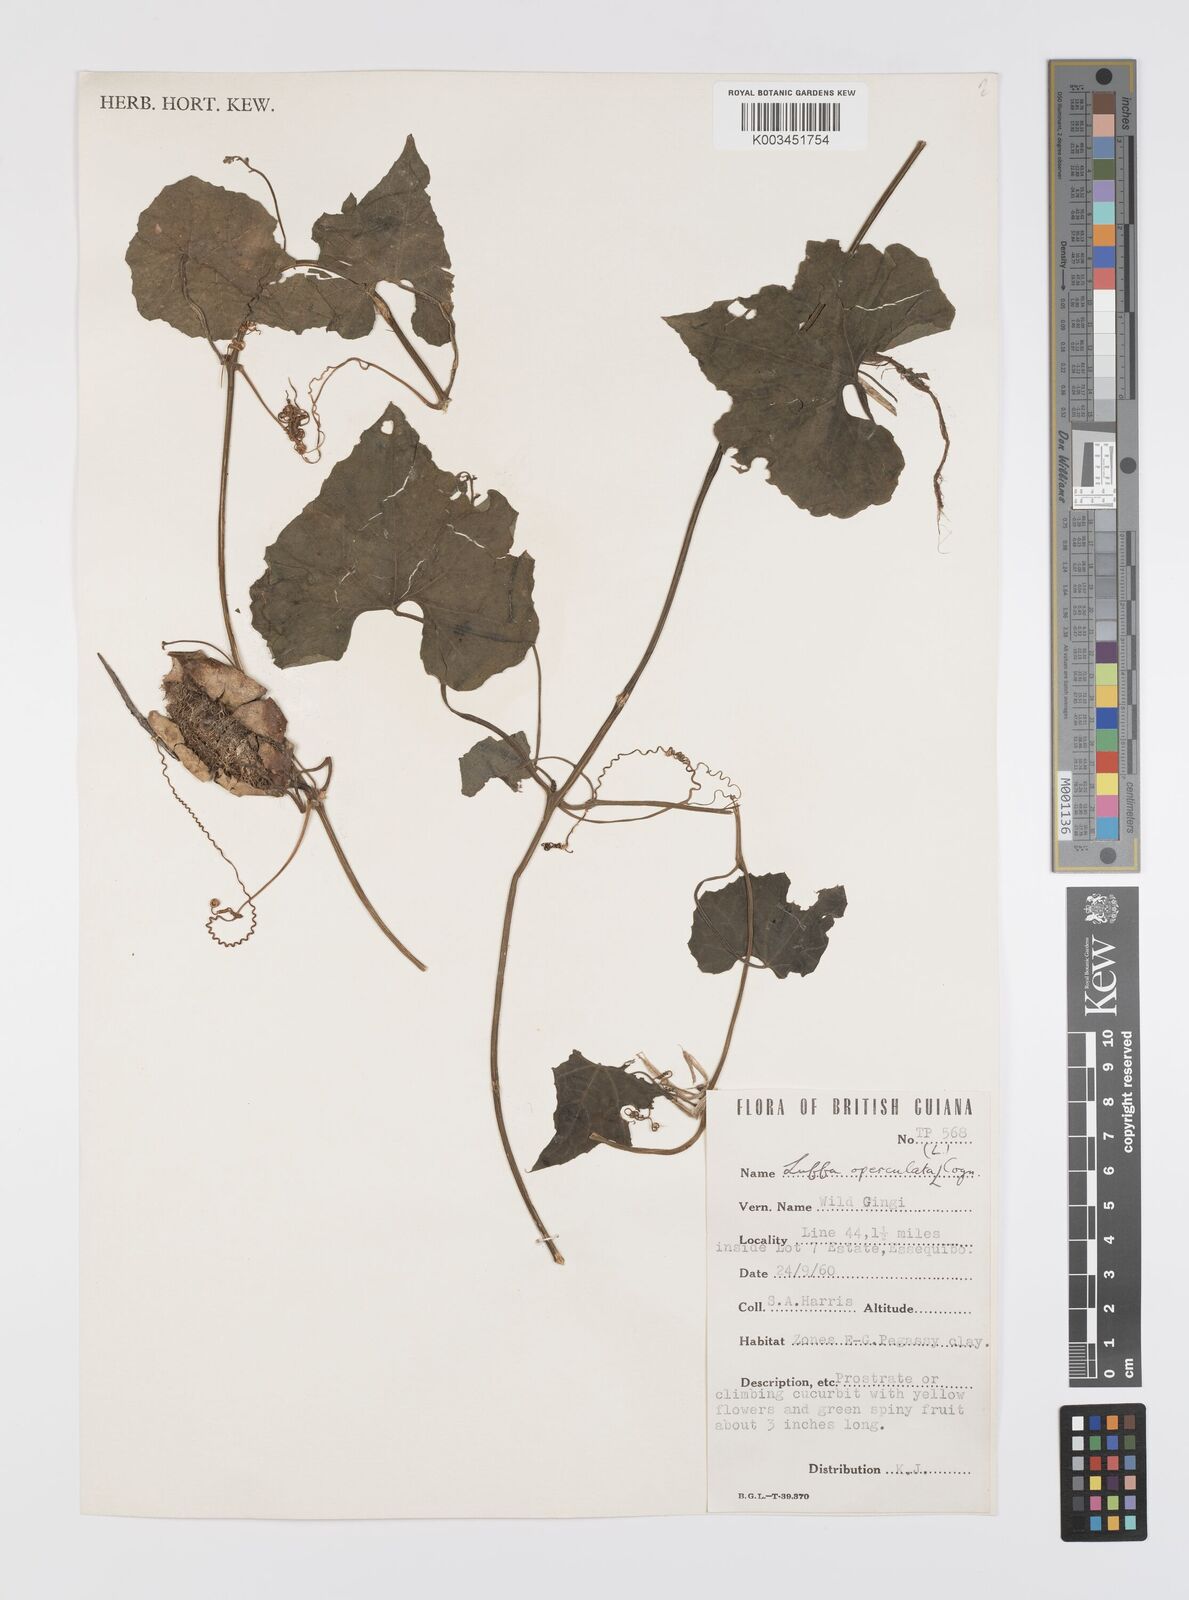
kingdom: Plantae
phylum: Tracheophyta
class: Magnoliopsida
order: Cucurbitales
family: Cucurbitaceae
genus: Luffa
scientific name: Luffa operculata
